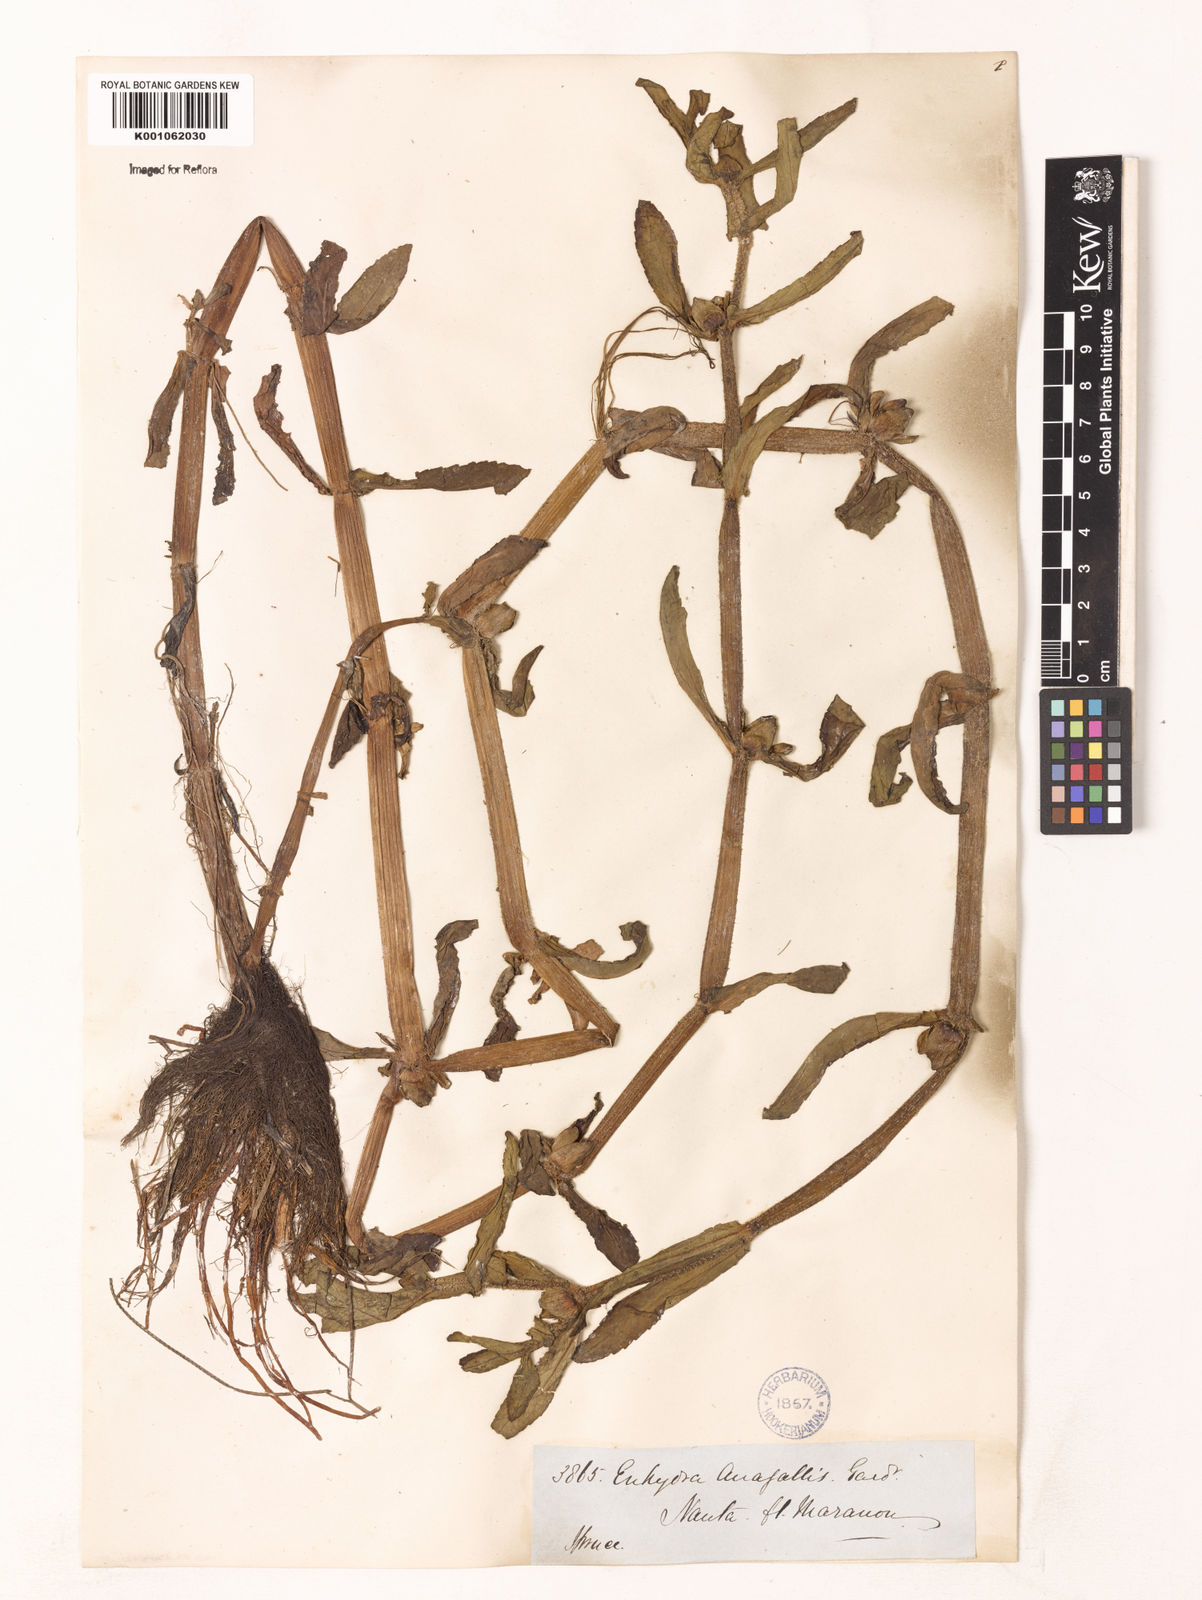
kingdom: Plantae
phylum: Tracheophyta
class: Magnoliopsida
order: Asterales
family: Asteraceae
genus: Enydra
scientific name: Enydra fluctuans
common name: Buffalo spinach
